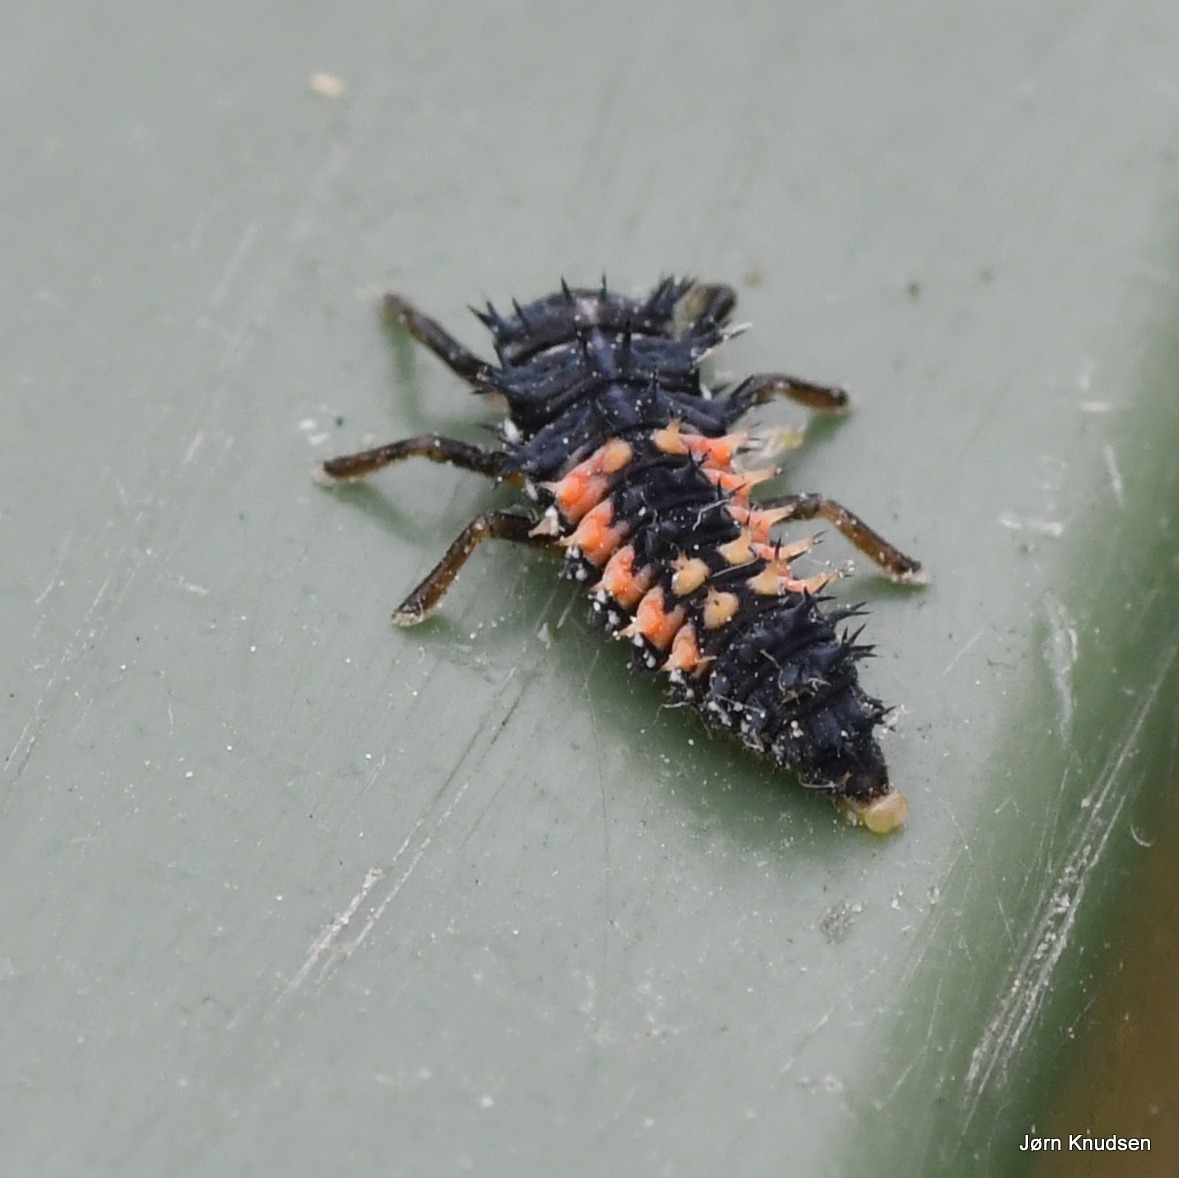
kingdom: Animalia
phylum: Arthropoda
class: Insecta
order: Coleoptera
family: Coccinellidae
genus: Harmonia
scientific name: Harmonia axyridis
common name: Harlekinmariehøne
